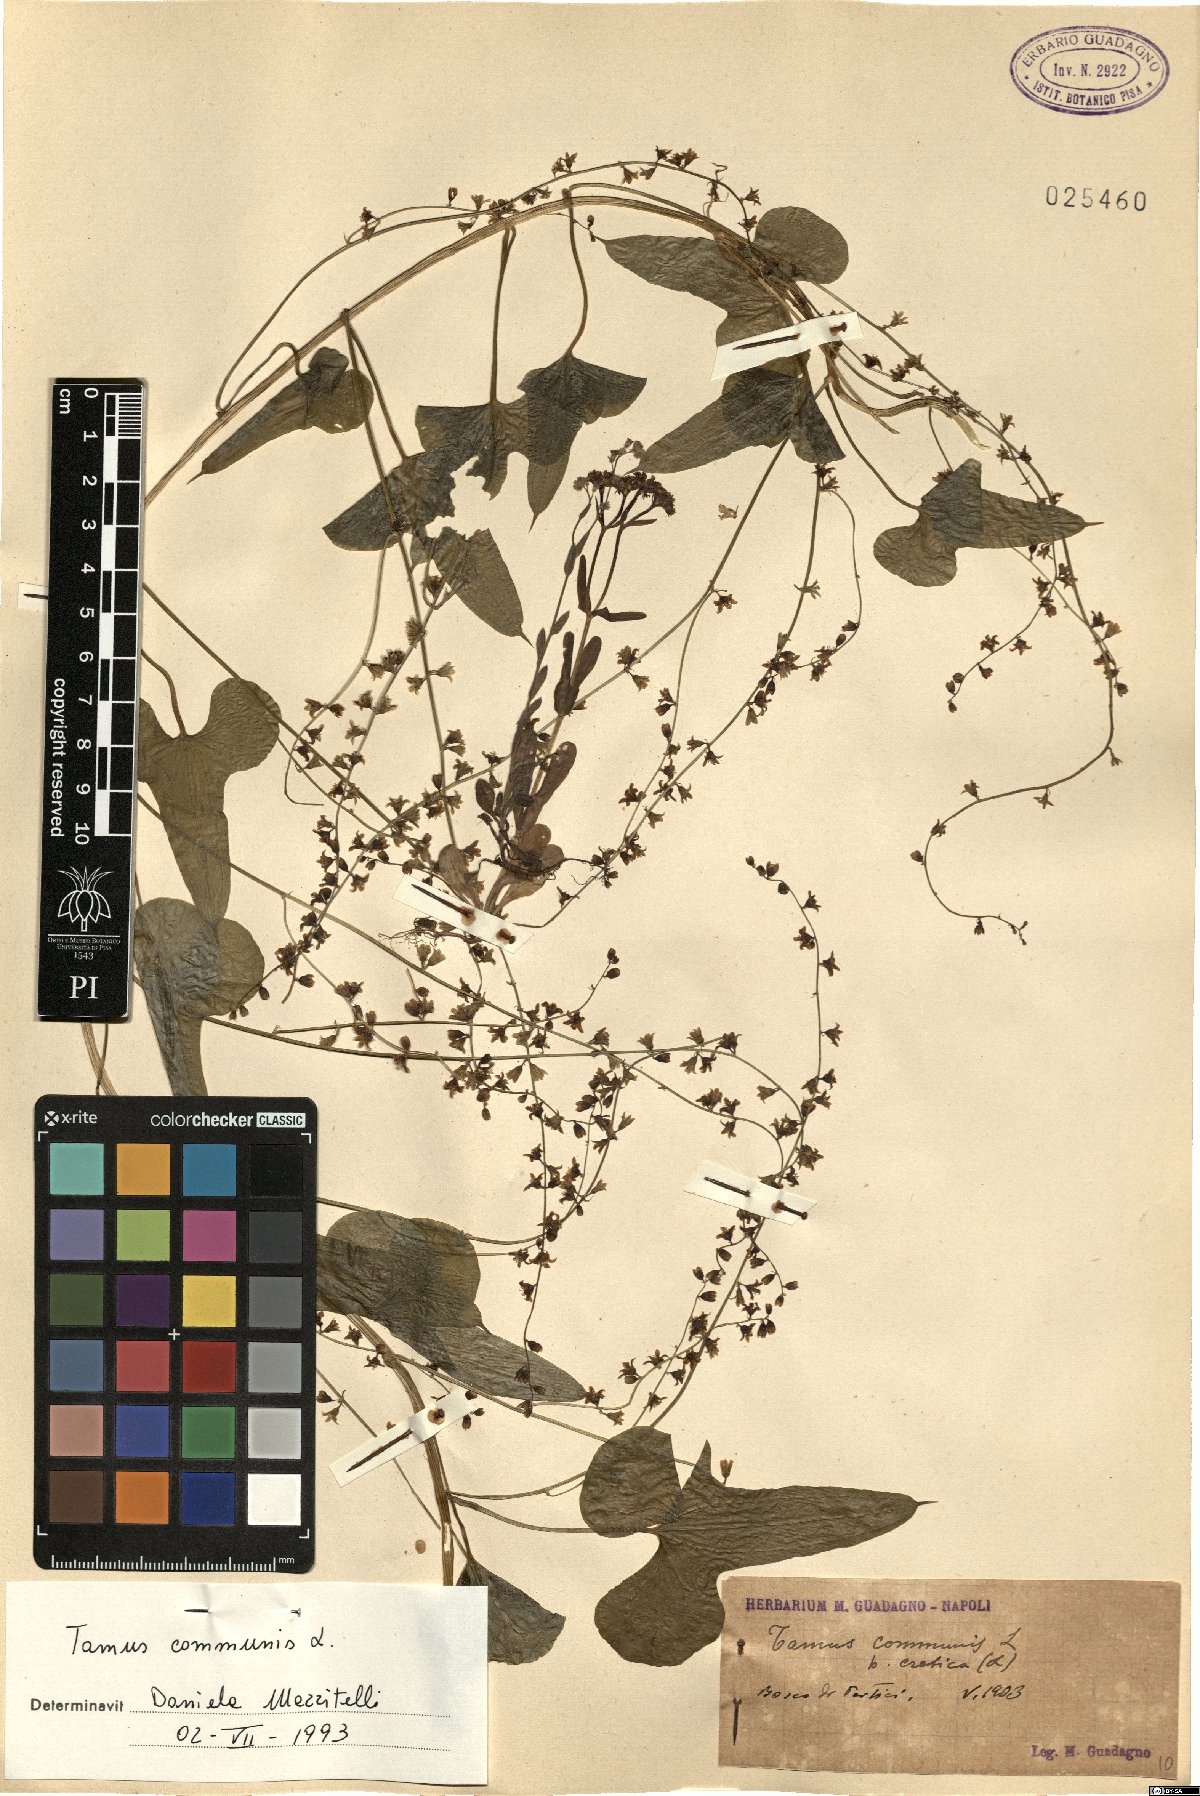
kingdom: Plantae
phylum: Tracheophyta
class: Liliopsida
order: Dioscoreales
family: Dioscoreaceae
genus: Dioscorea
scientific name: Dioscorea communis
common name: Black-bindweed
